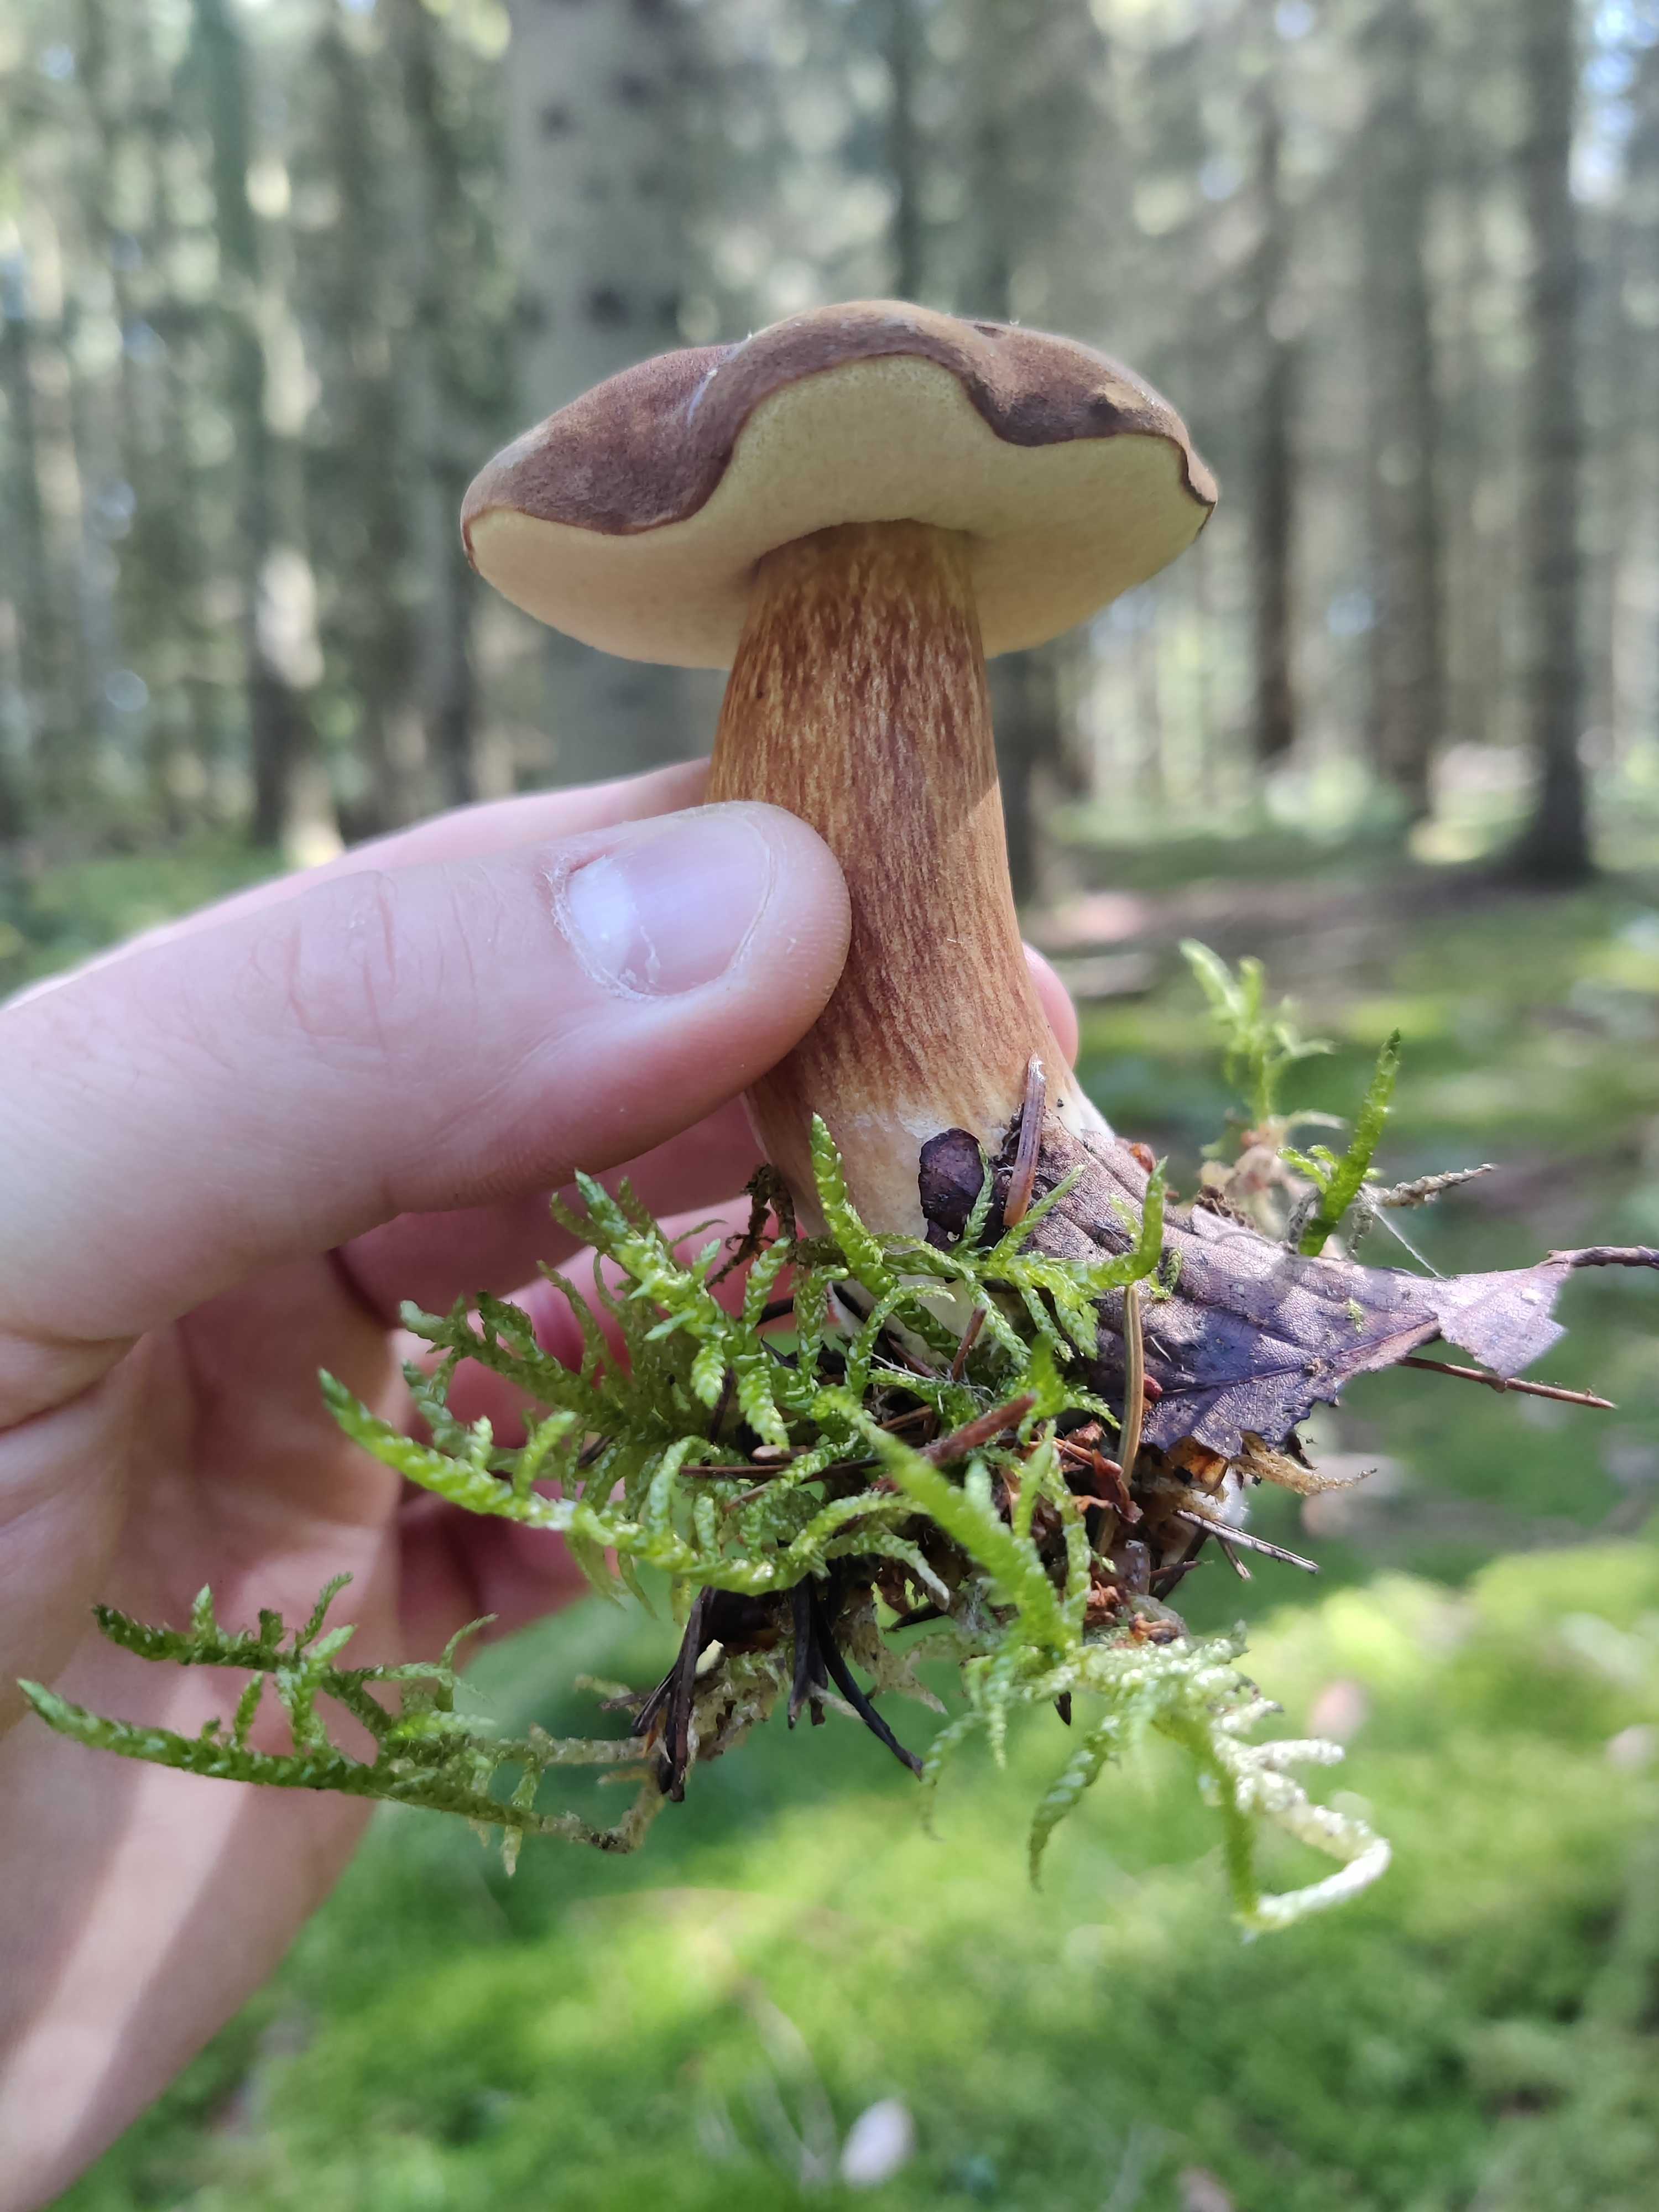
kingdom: Fungi
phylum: Basidiomycota
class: Agaricomycetes
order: Boletales
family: Boletaceae
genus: Imleria
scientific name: Imleria badia
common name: brunstokket rørhat
